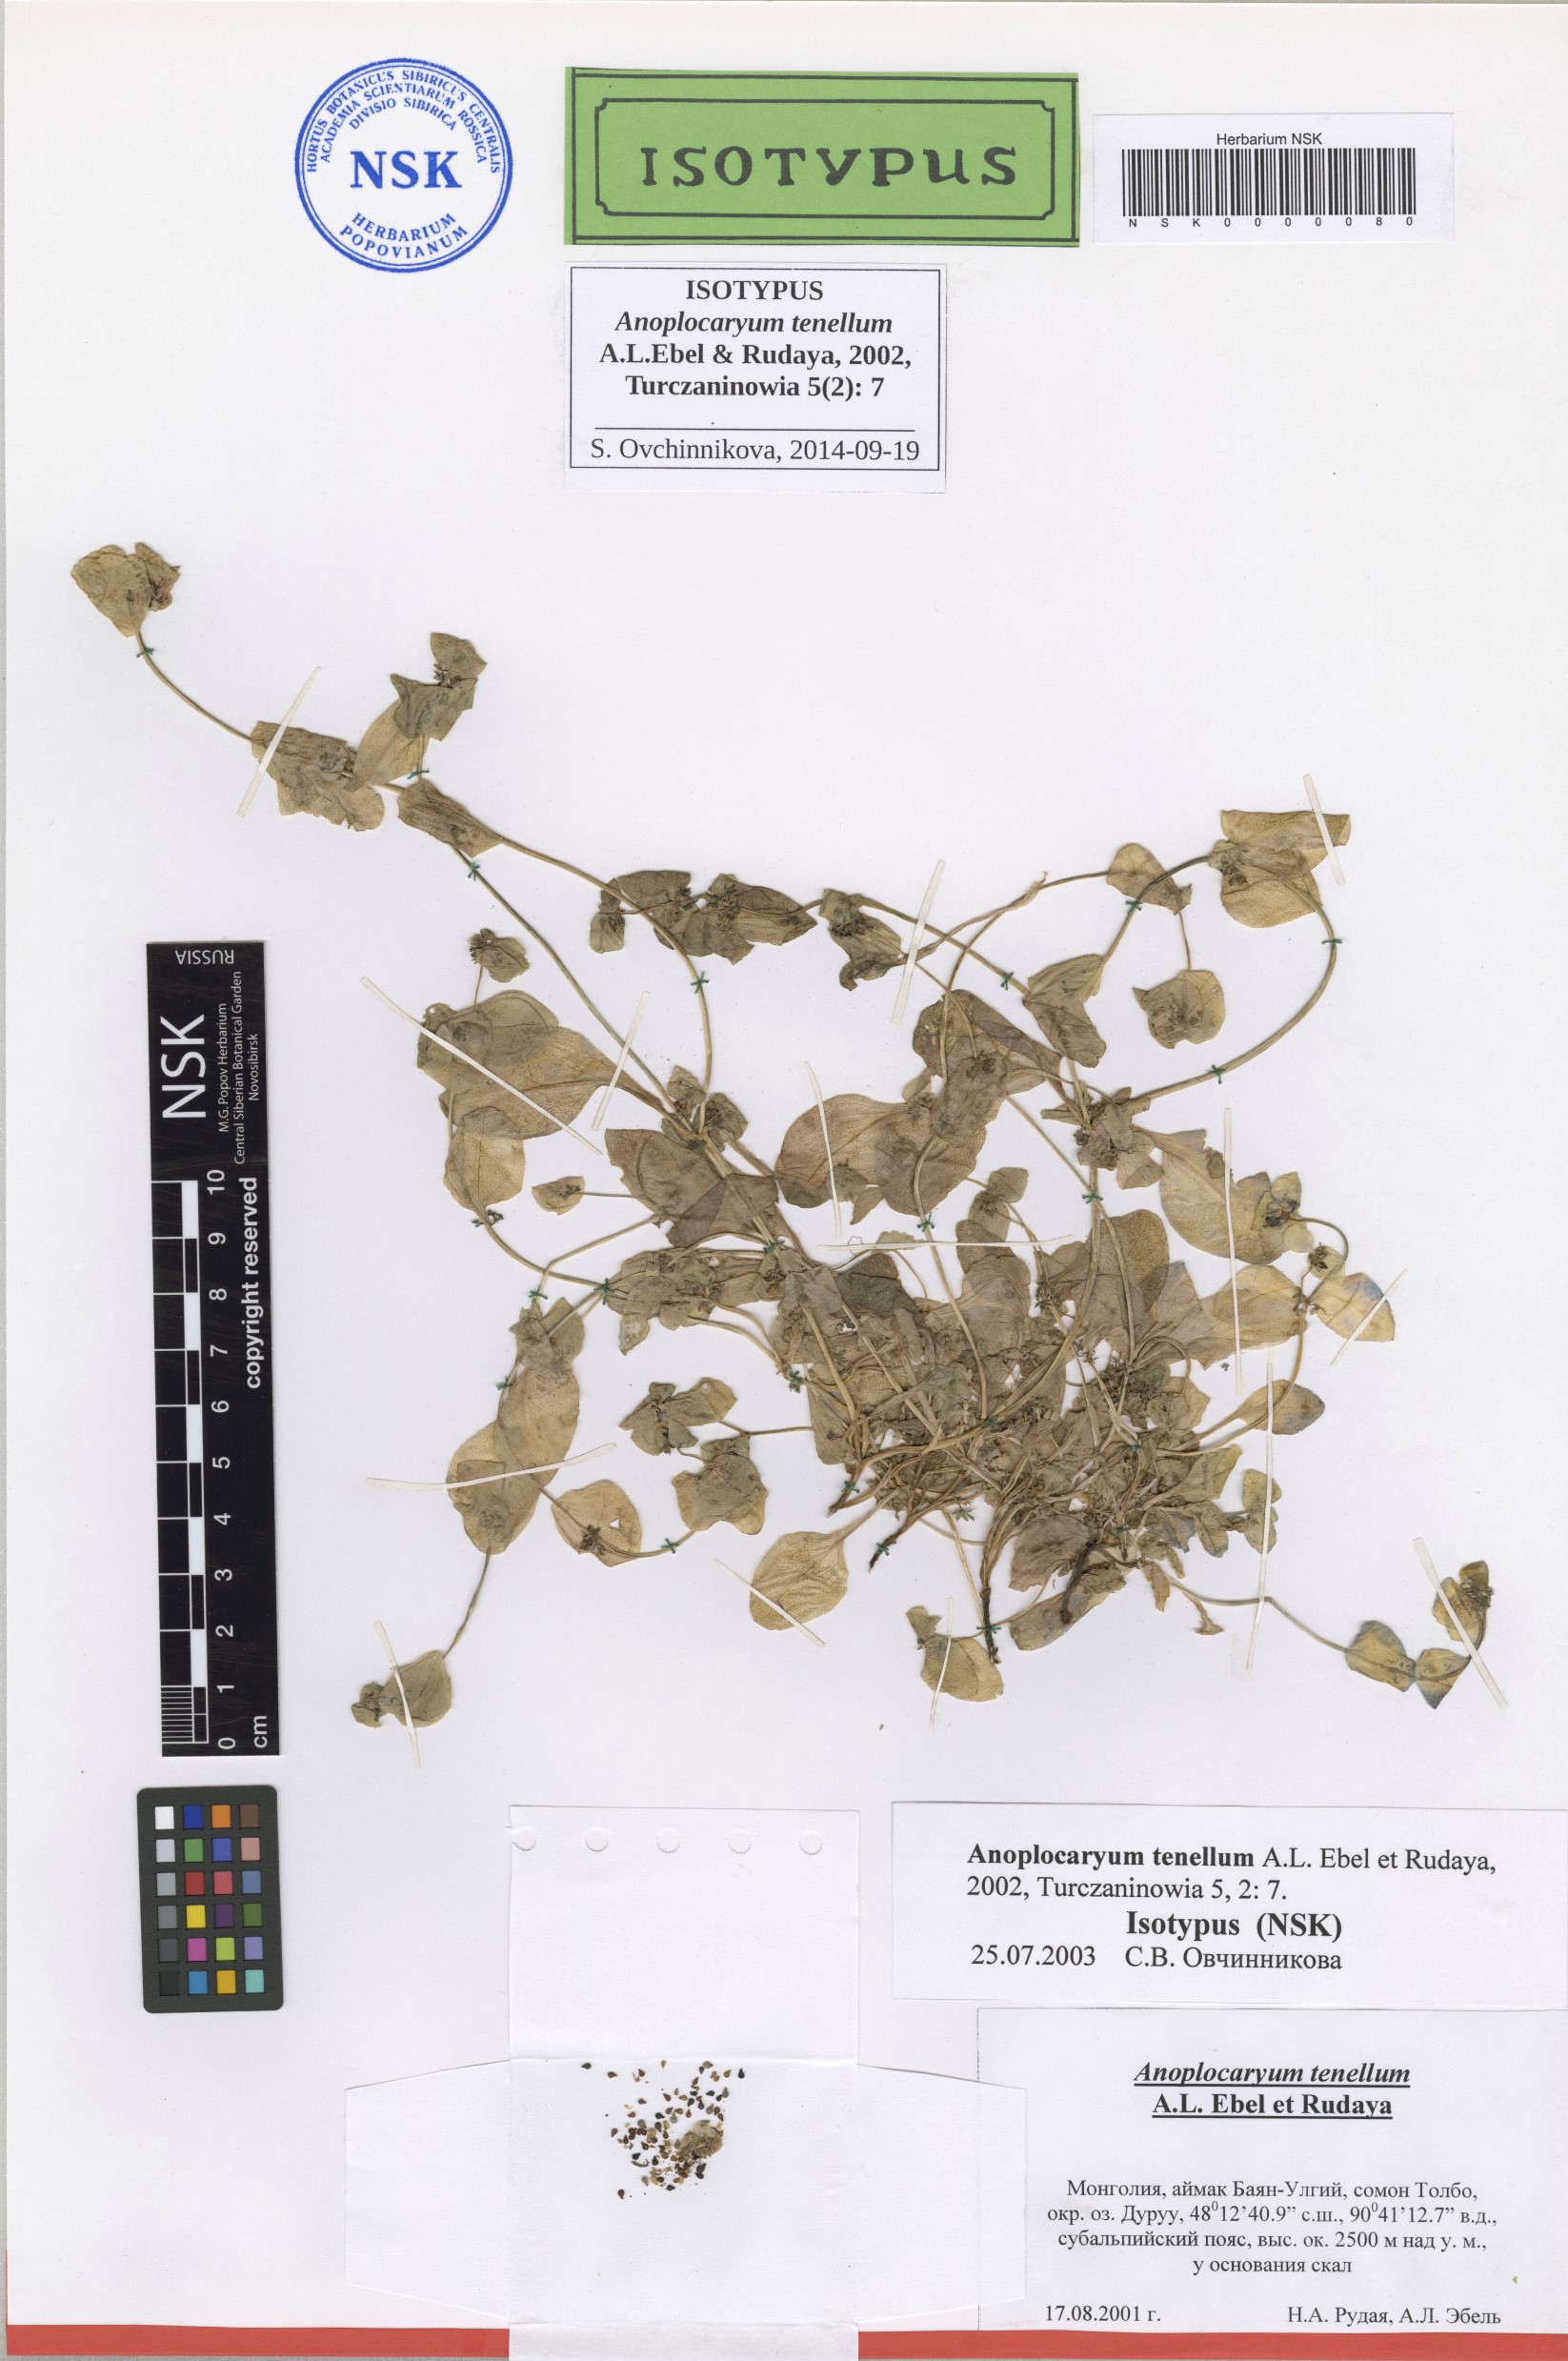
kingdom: Plantae
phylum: Tracheophyta
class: Magnoliopsida
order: Boraginales
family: Boraginaceae
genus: Anoplocaryum
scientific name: Anoplocaryum tenellum
